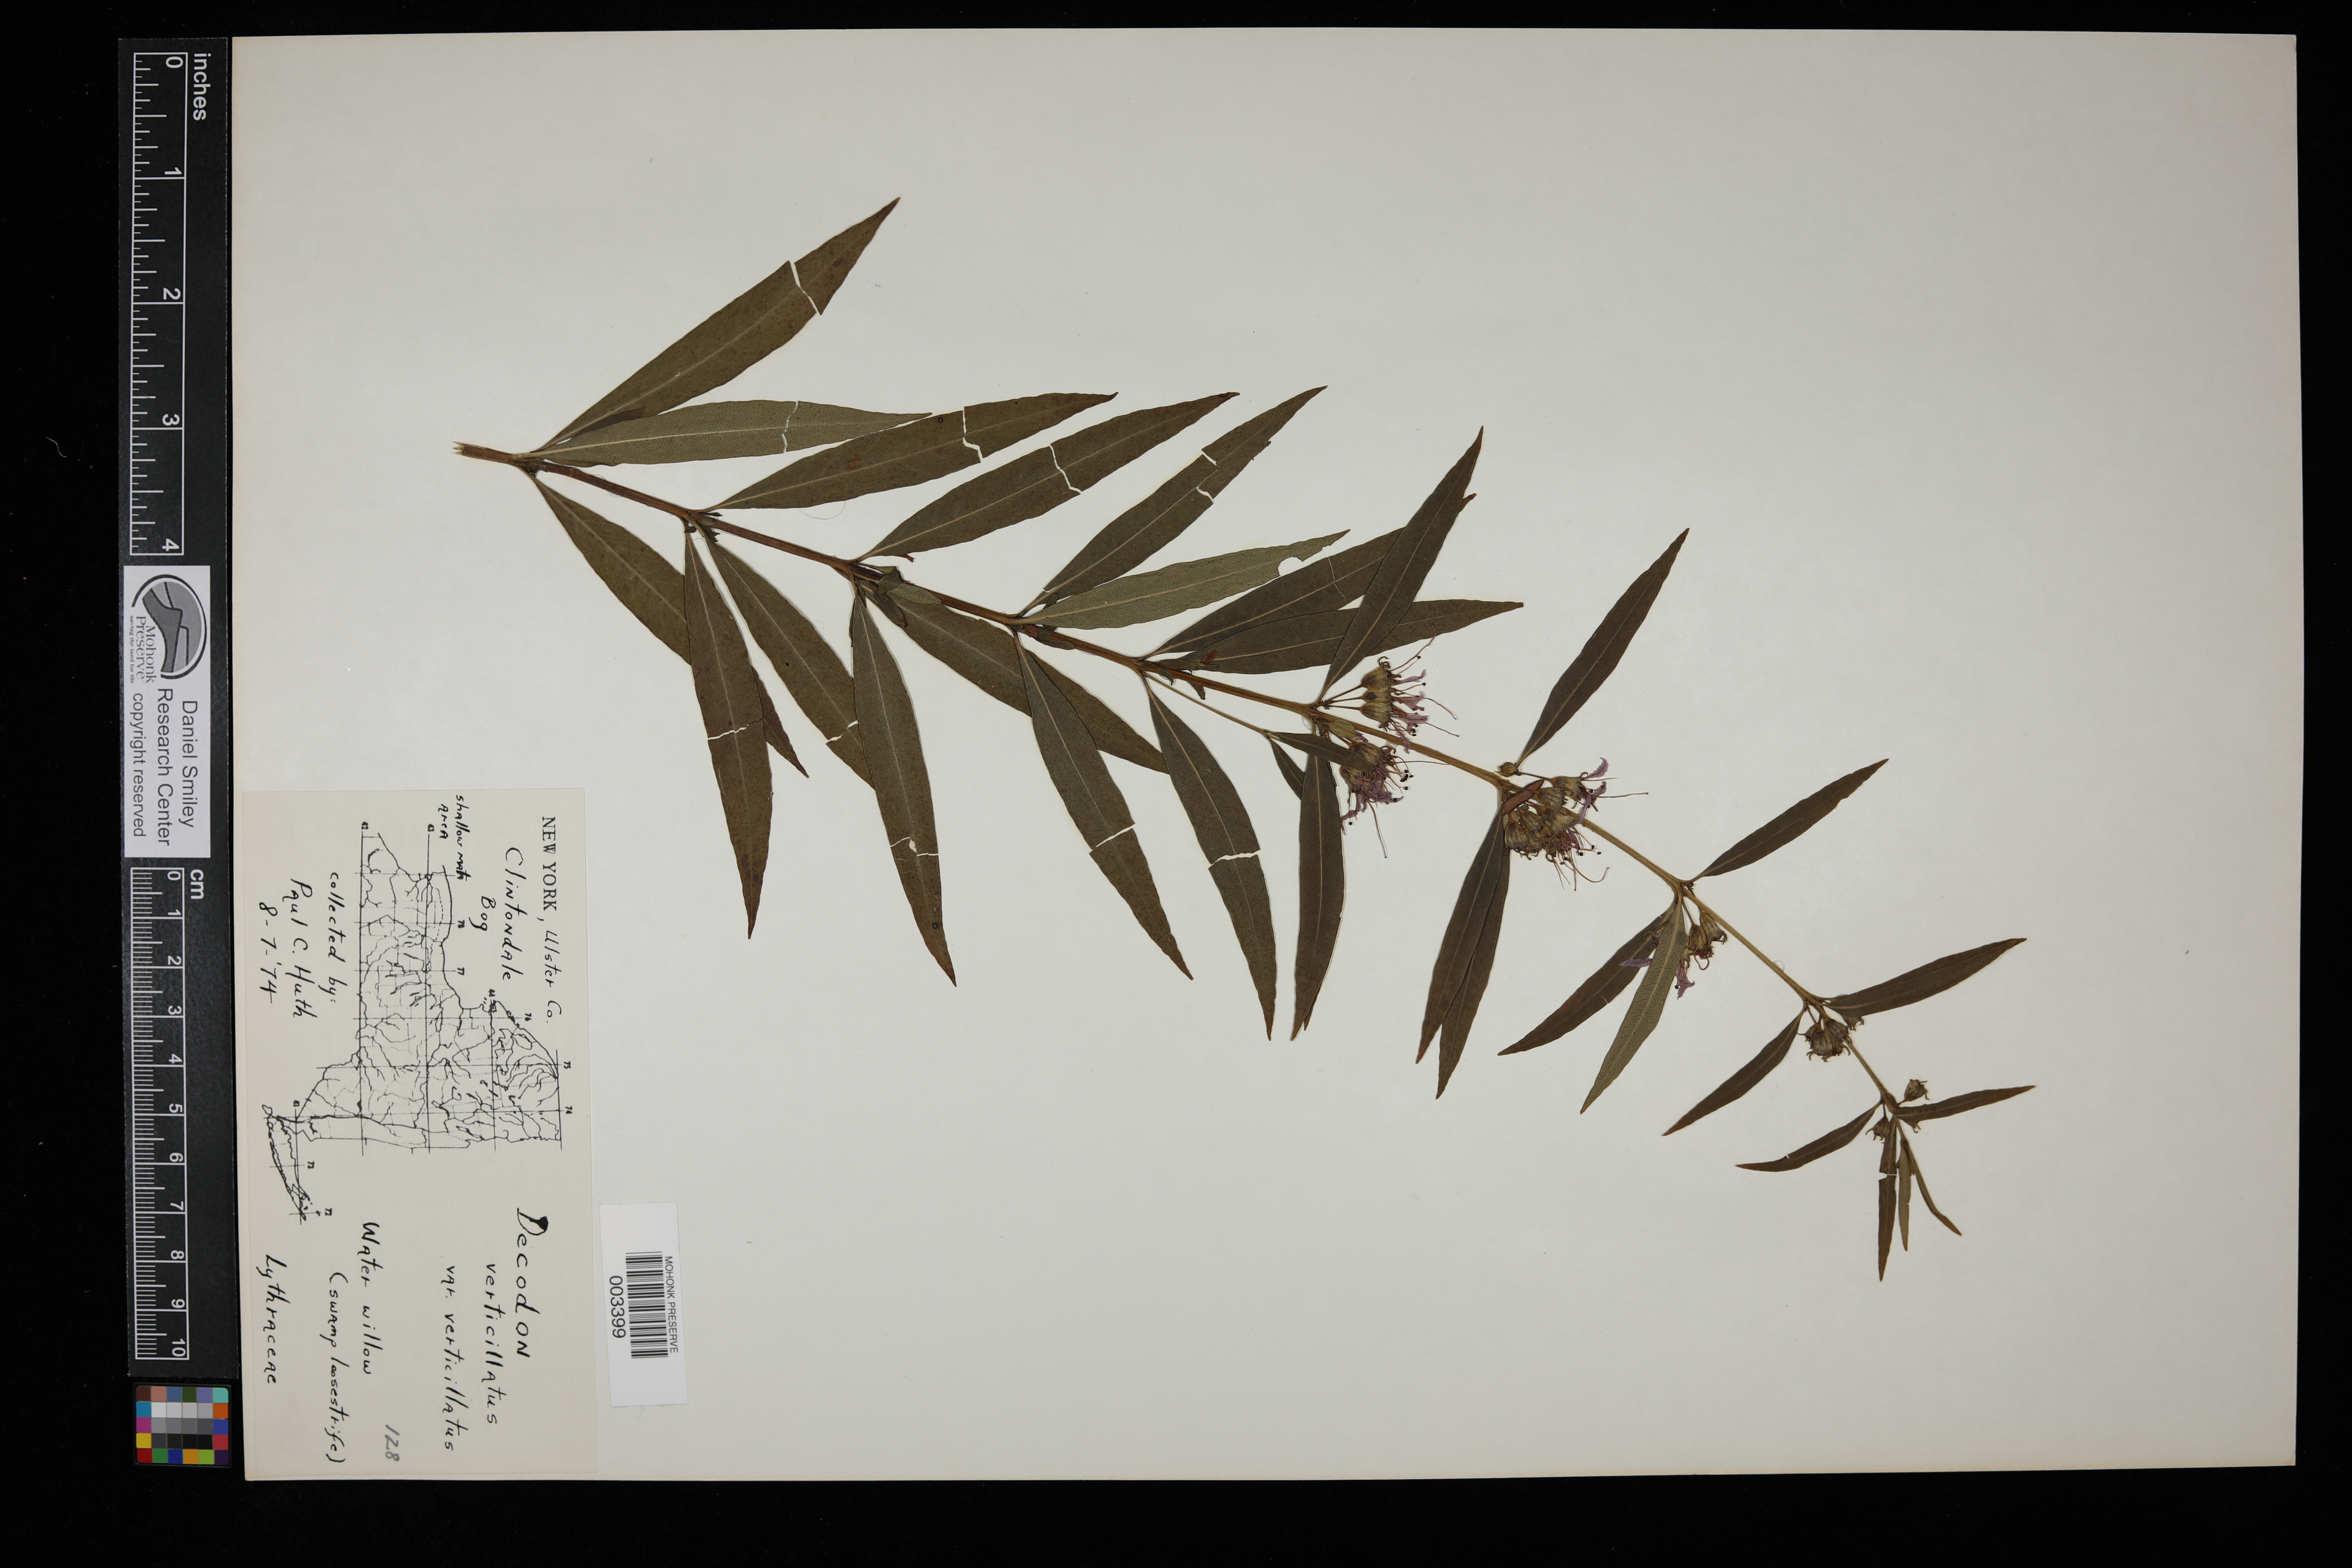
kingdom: Plantae
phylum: Tracheophyta
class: Magnoliopsida
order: Myrtales
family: Lythraceae
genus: Decodon
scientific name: Decodon verticillatus
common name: Hairy swamp loosestrife
